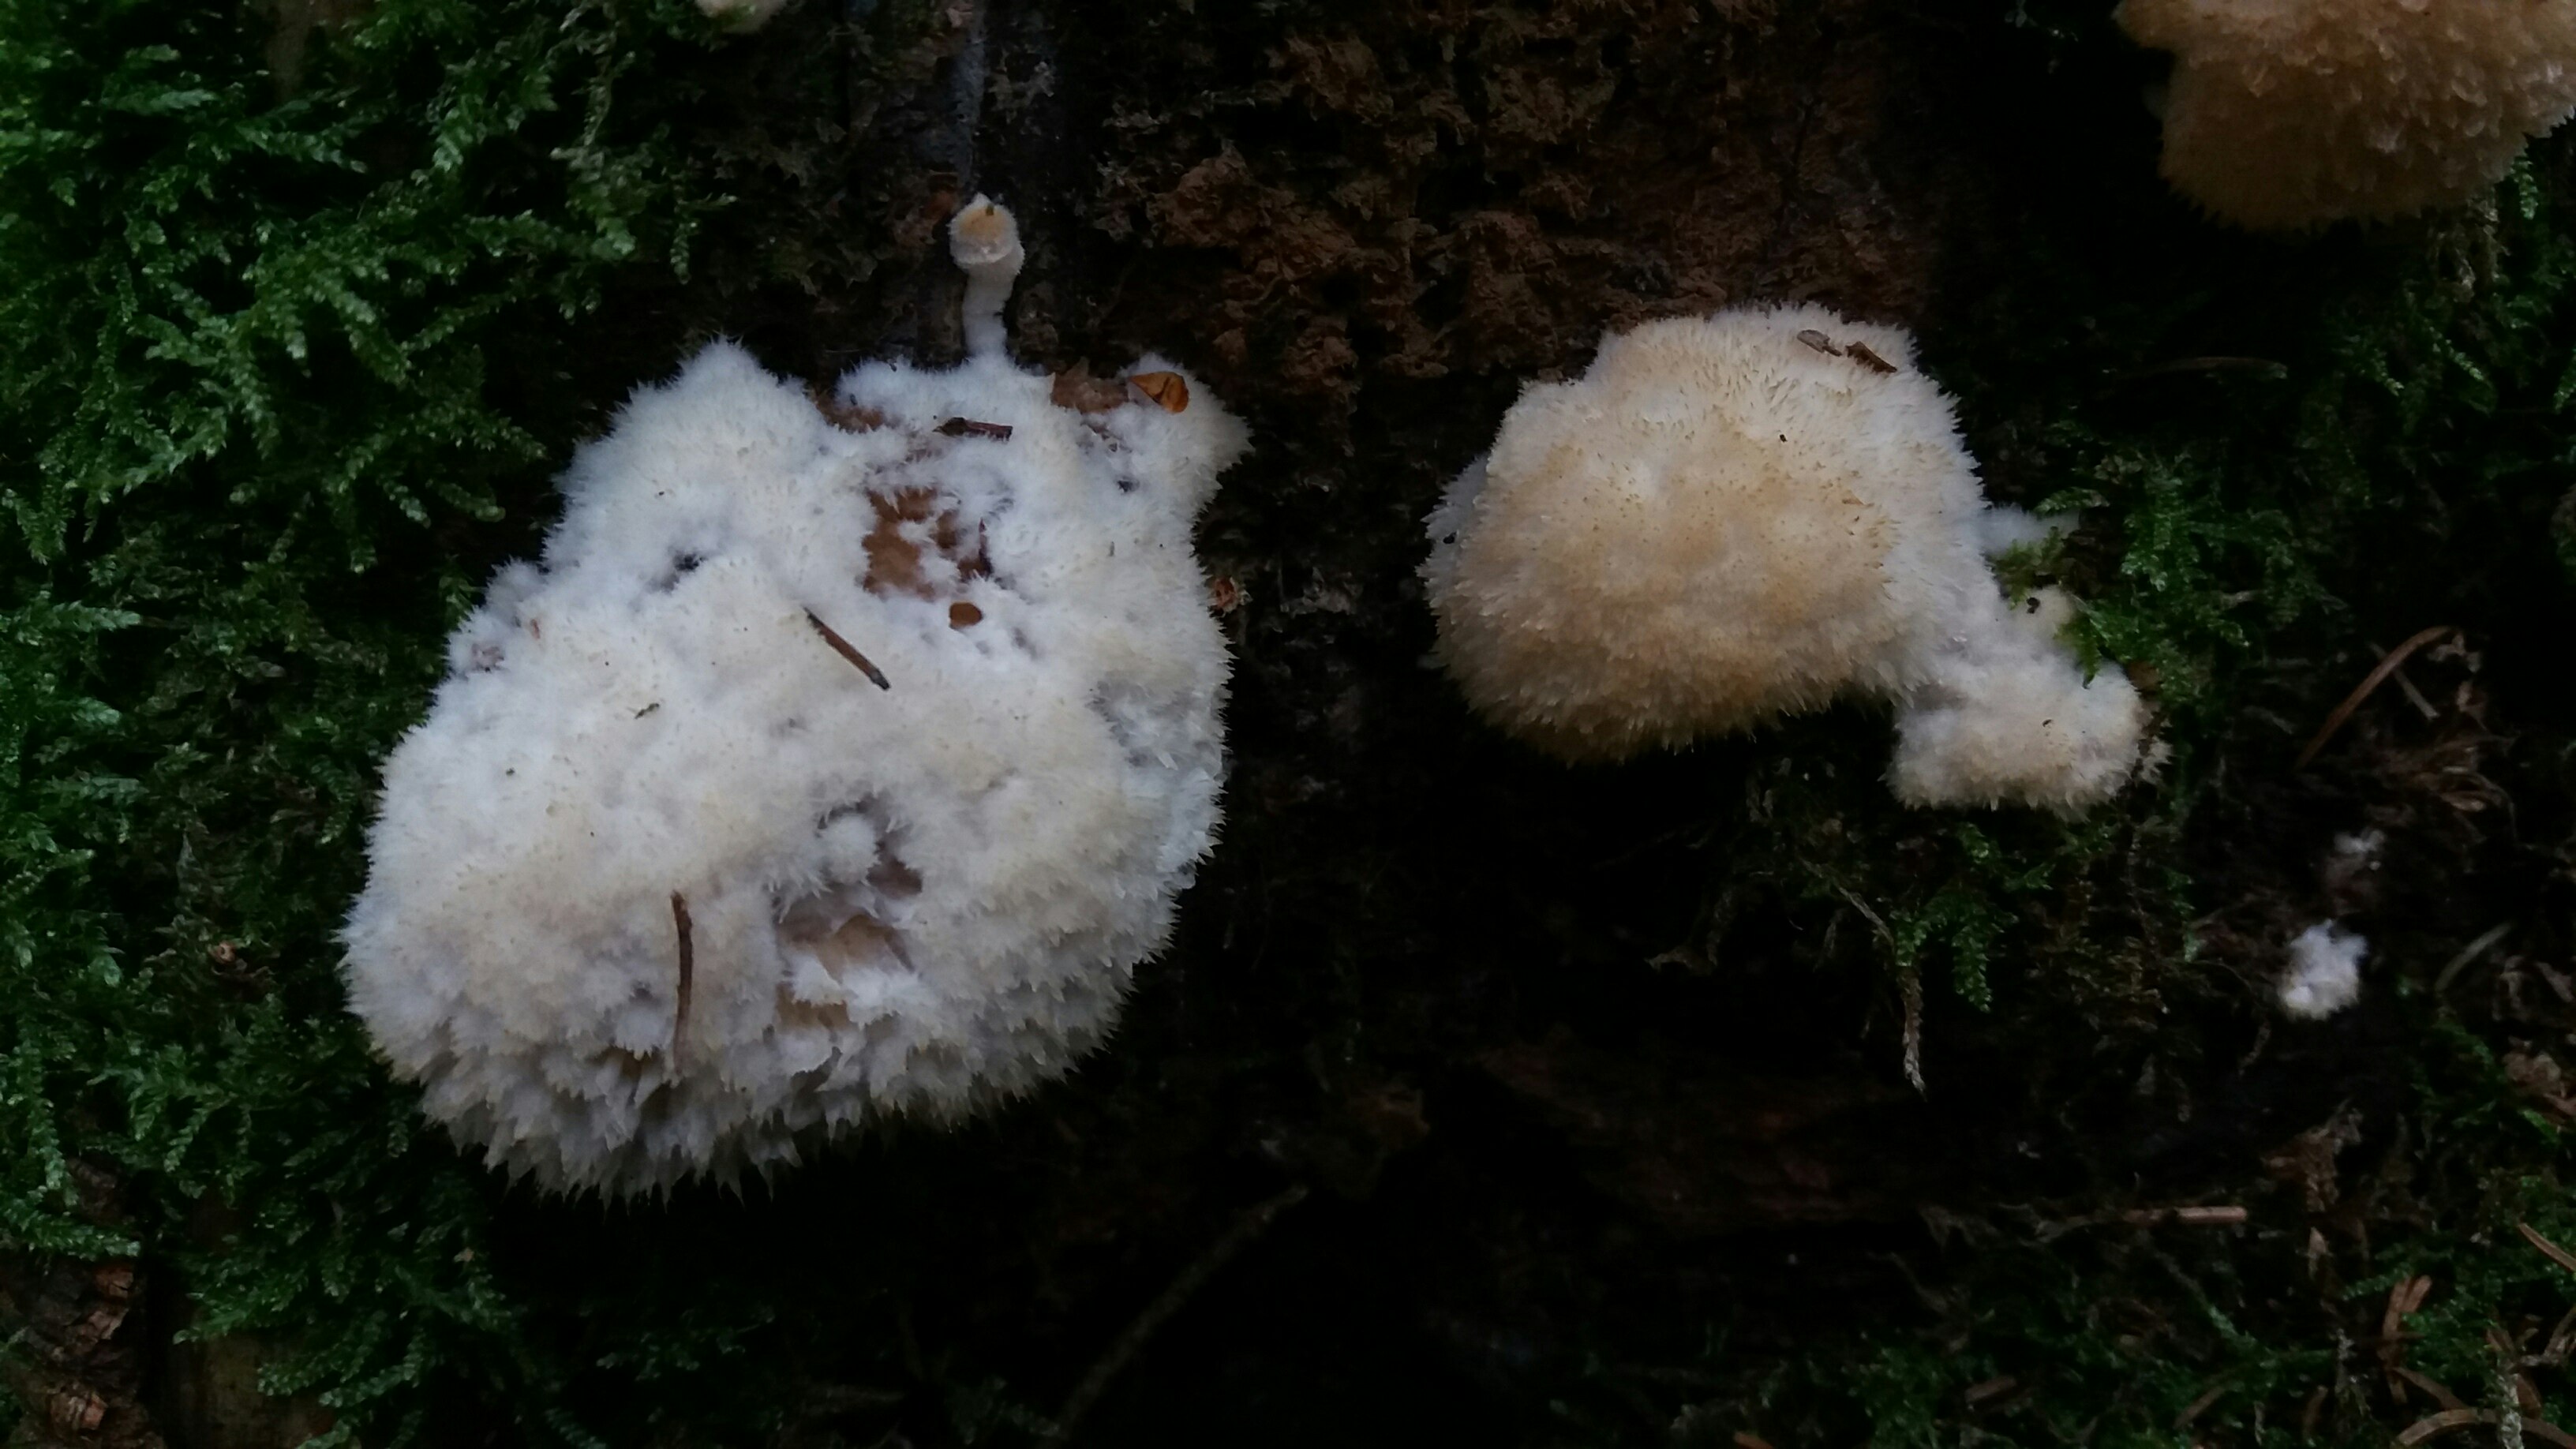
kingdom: Fungi
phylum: Basidiomycota
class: Agaricomycetes
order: Polyporales
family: Dacryobolaceae
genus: Postia
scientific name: Postia ptychogaster
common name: støvende kødporesvamp
